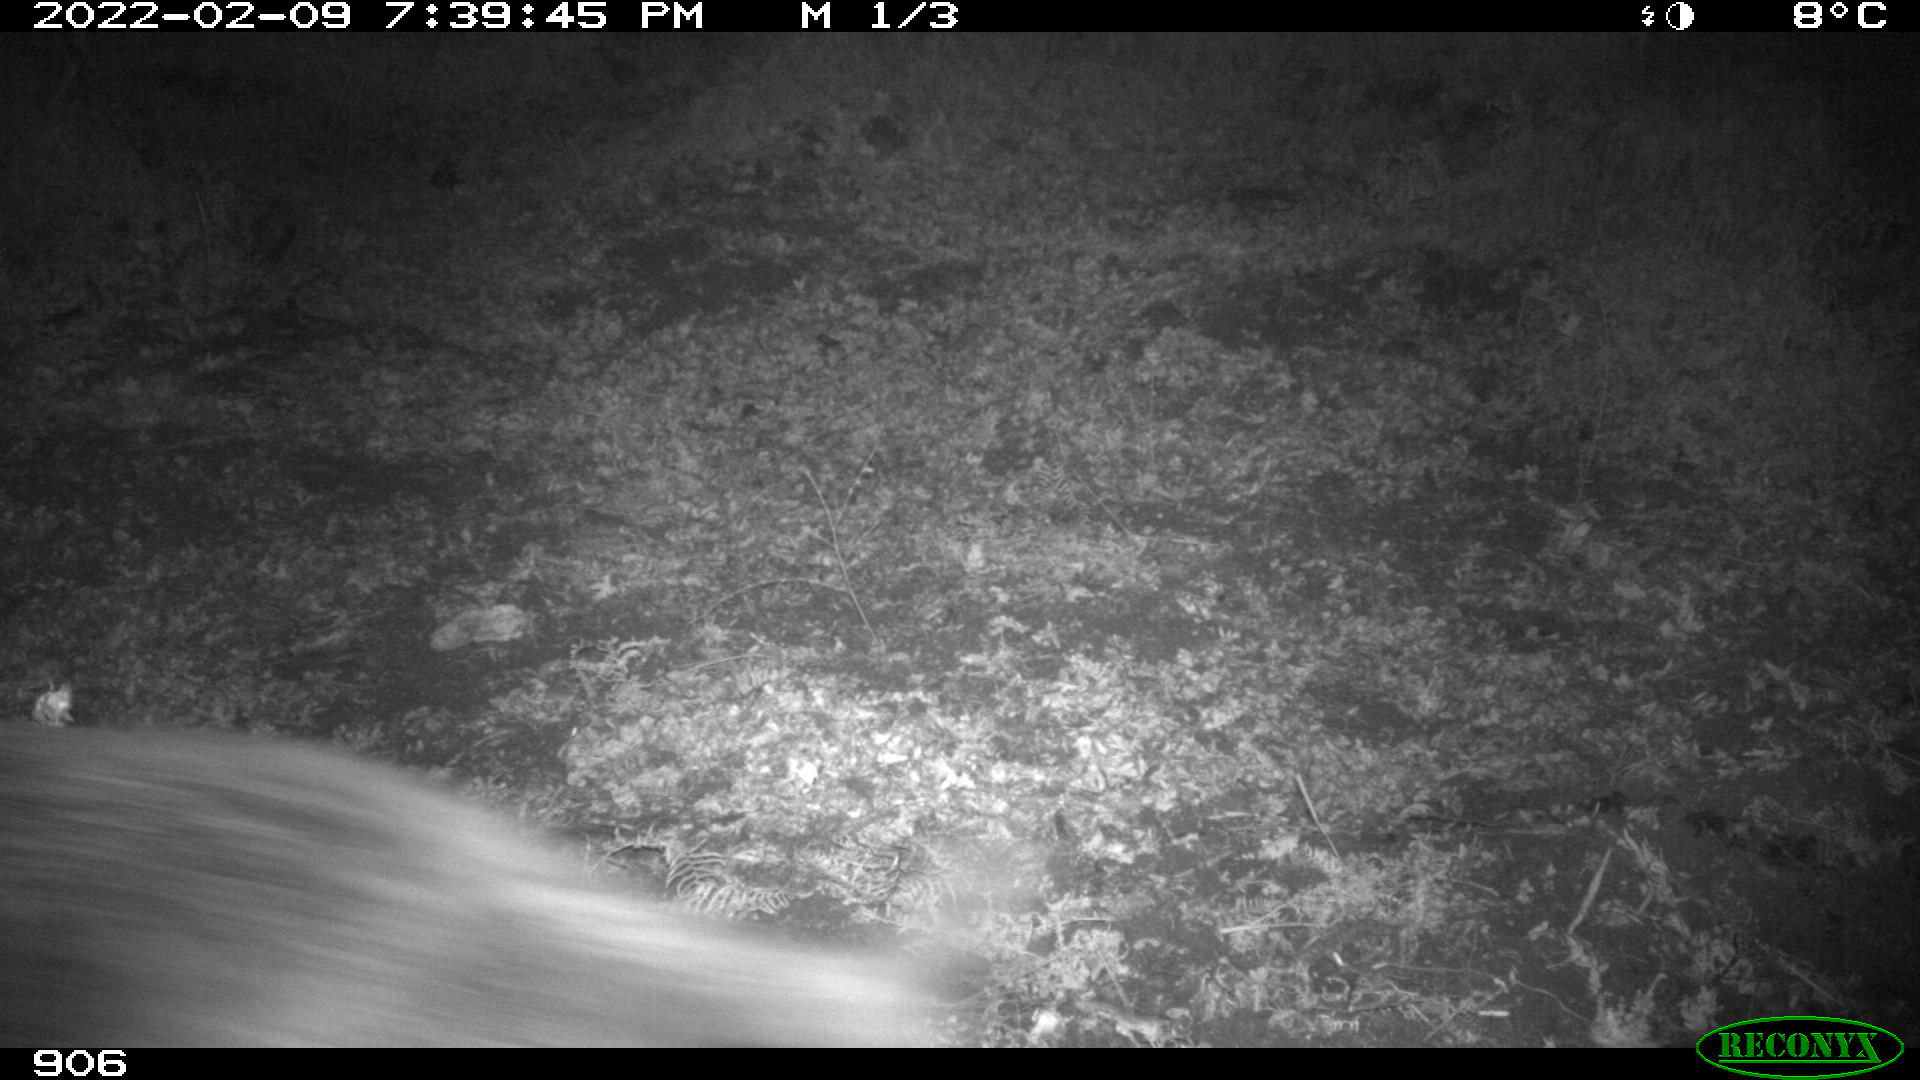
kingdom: Animalia
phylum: Chordata
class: Mammalia
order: Artiodactyla
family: Suidae
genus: Sus
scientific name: Sus scrofa
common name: Wild boar
